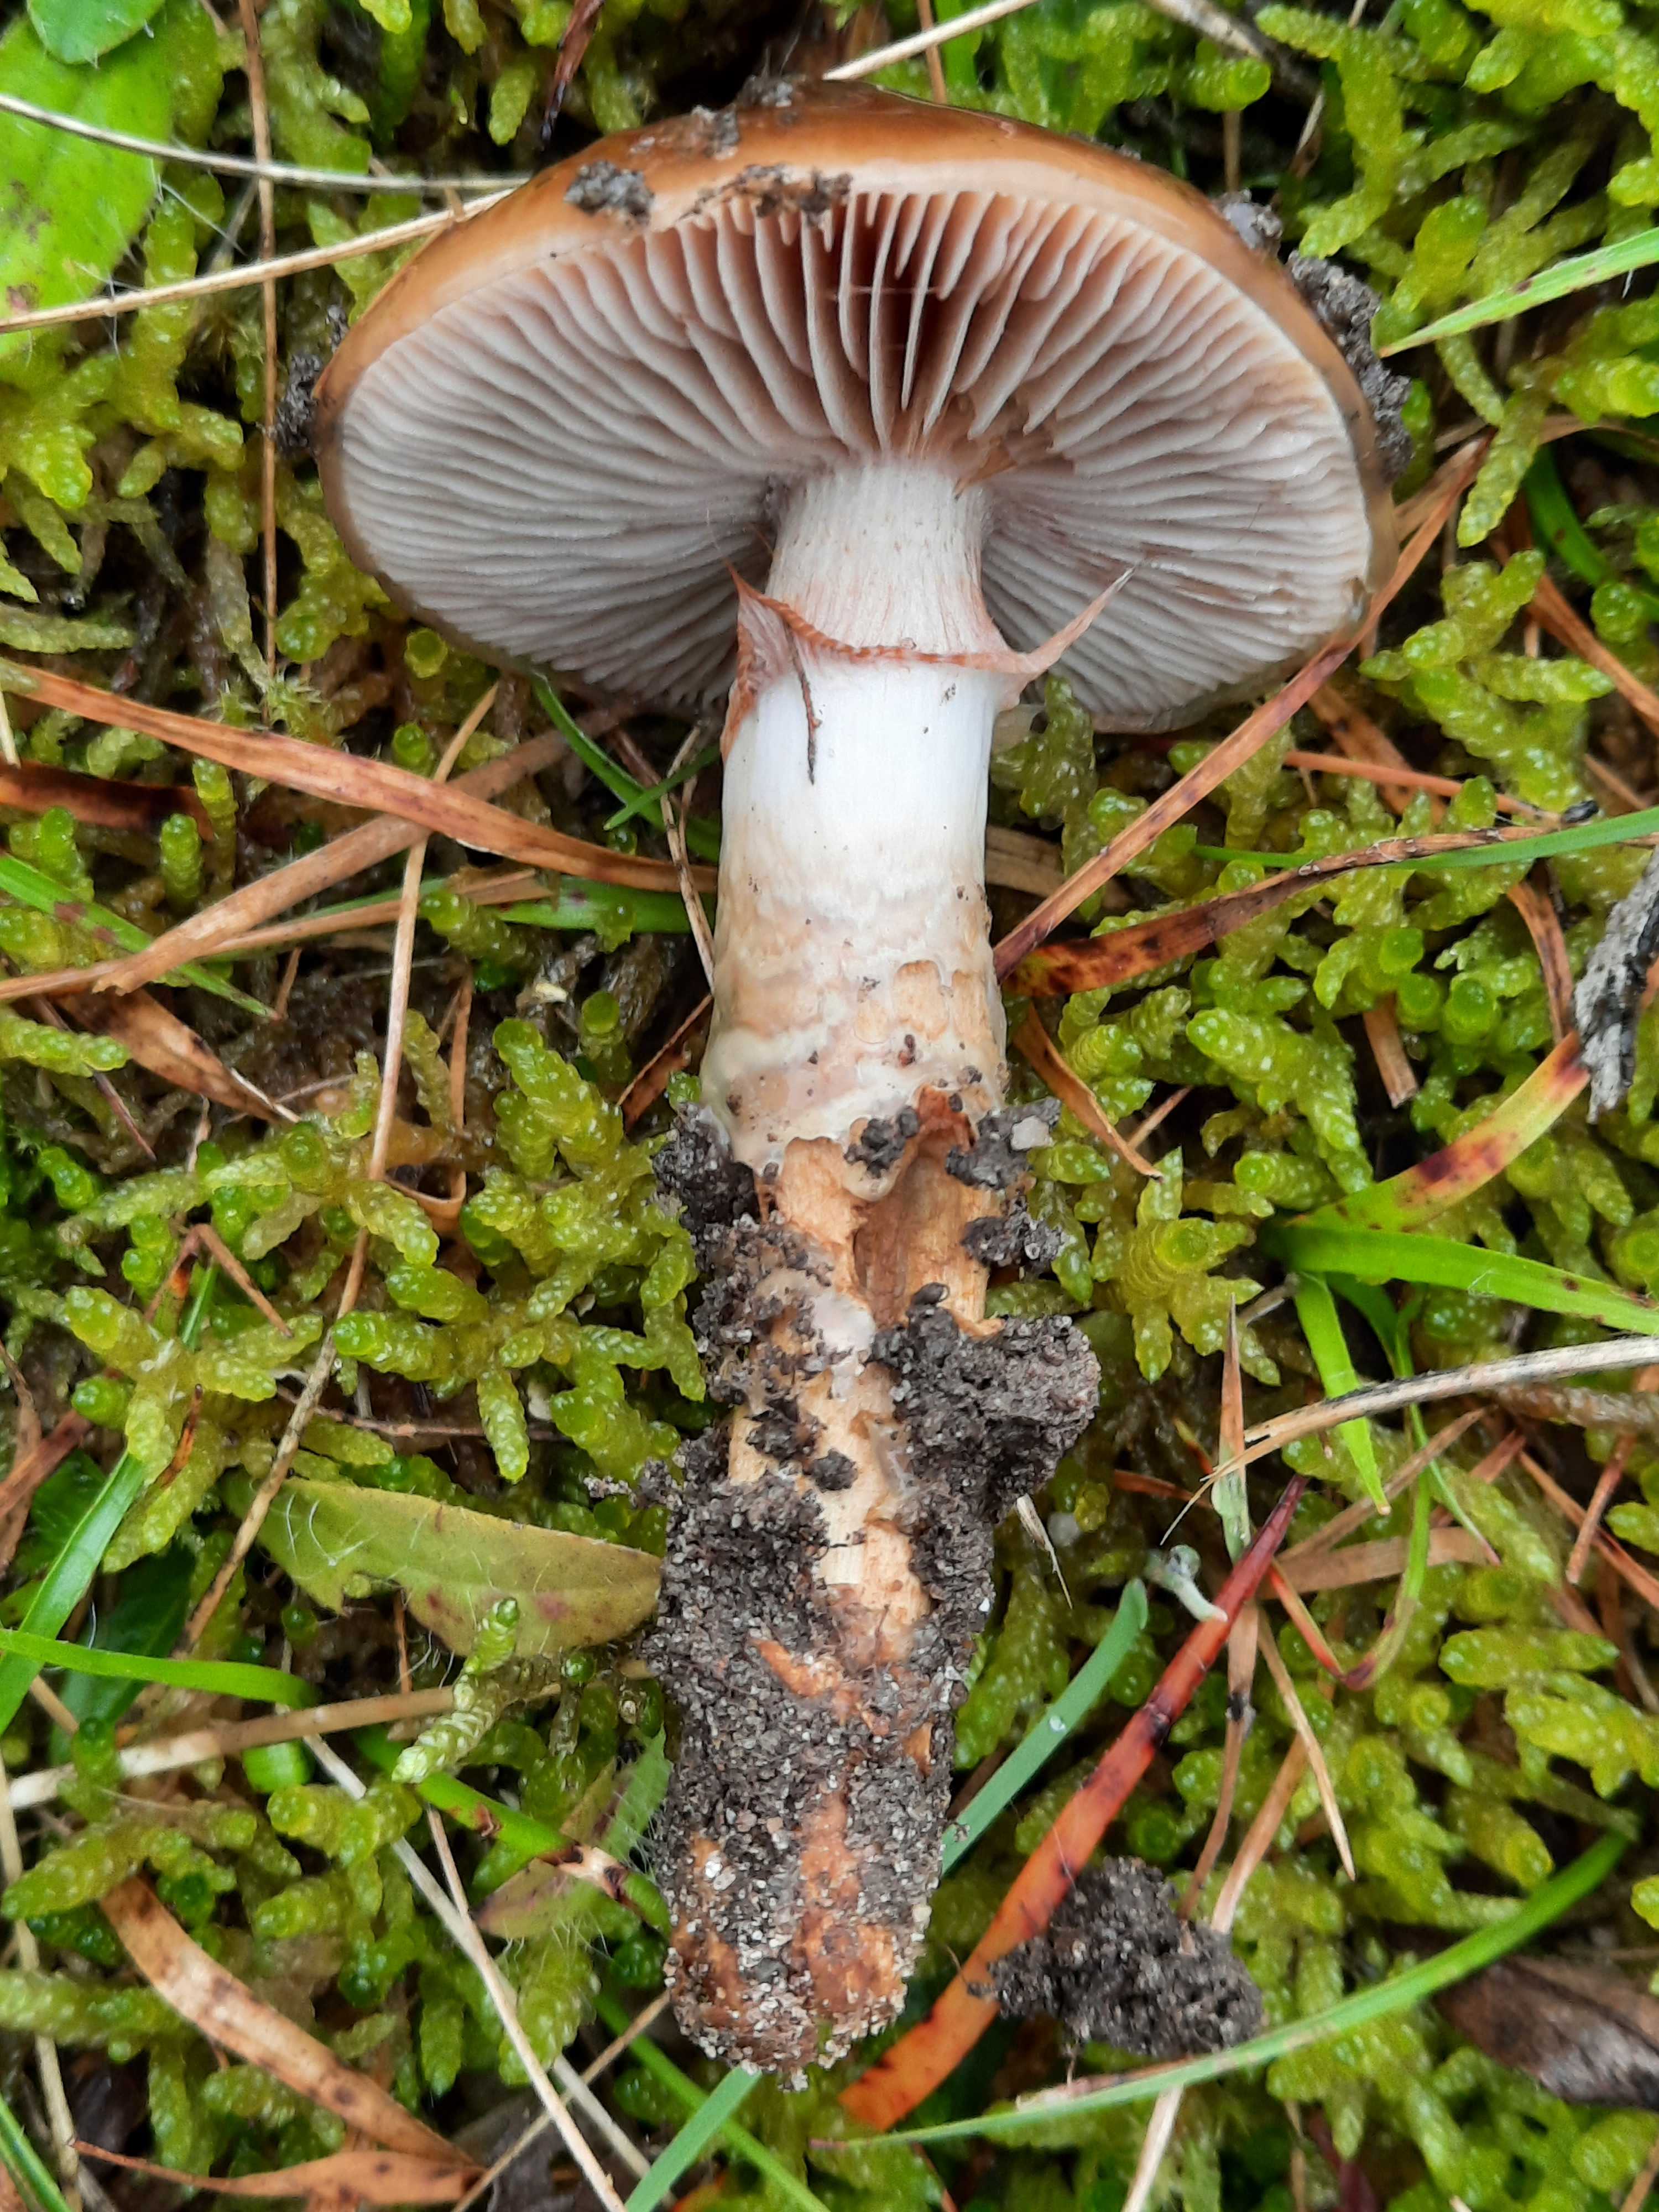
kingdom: Fungi
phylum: Basidiomycota
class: Agaricomycetes
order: Agaricales
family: Cortinariaceae
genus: Cortinarius
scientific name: Cortinarius trivialis
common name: brunslimet slørhat
